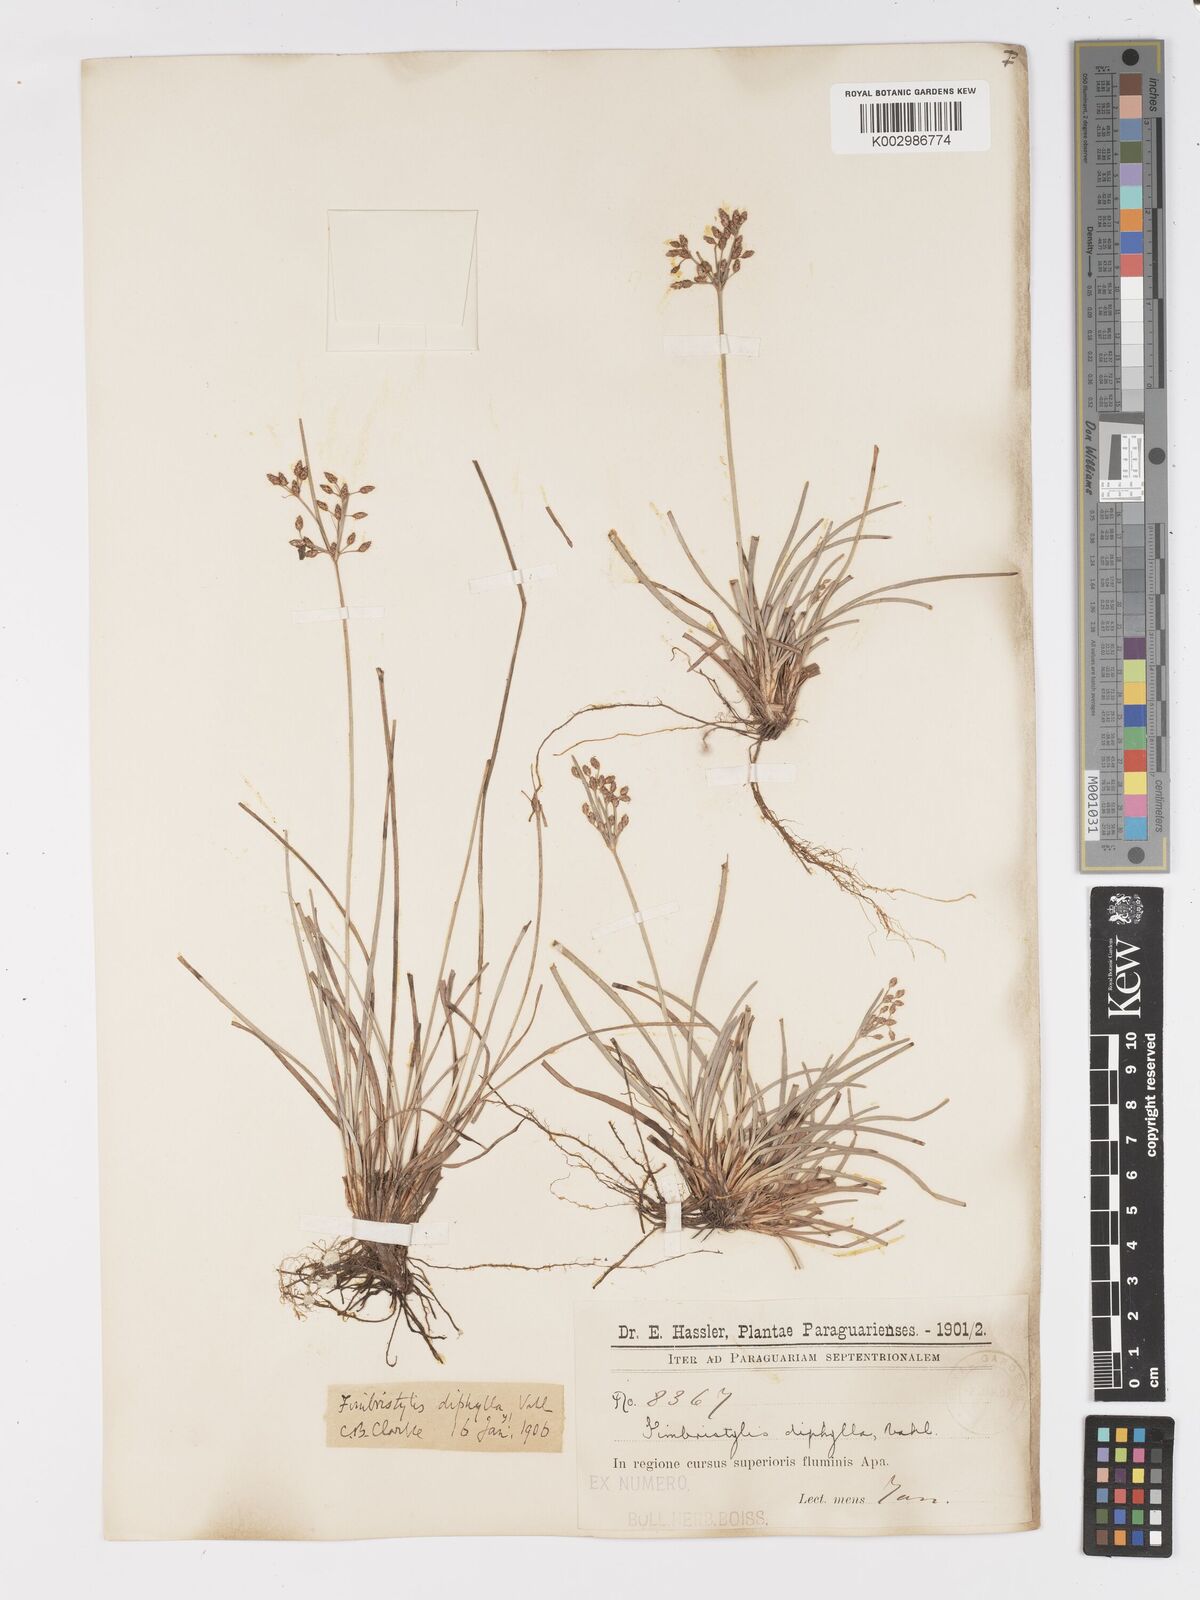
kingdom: Plantae
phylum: Tracheophyta
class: Liliopsida
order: Poales
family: Cyperaceae
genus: Fimbristylis
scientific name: Fimbristylis dichotoma
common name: Forked fimbry
